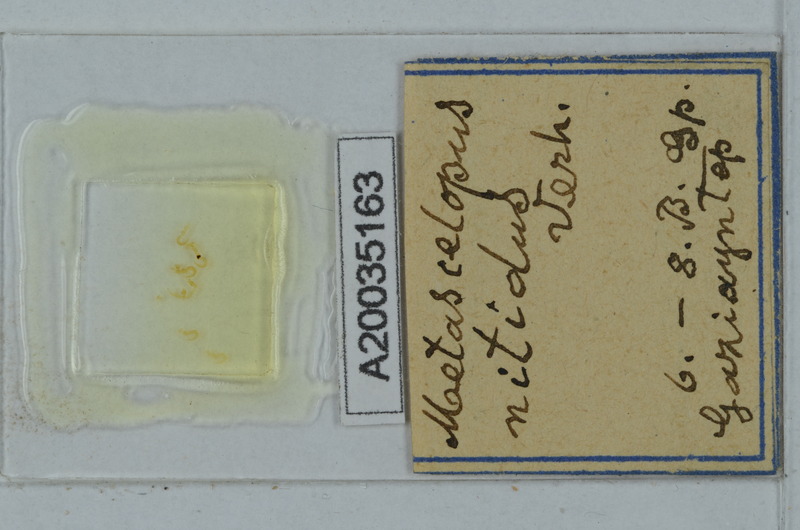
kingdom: Animalia
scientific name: Animalia
